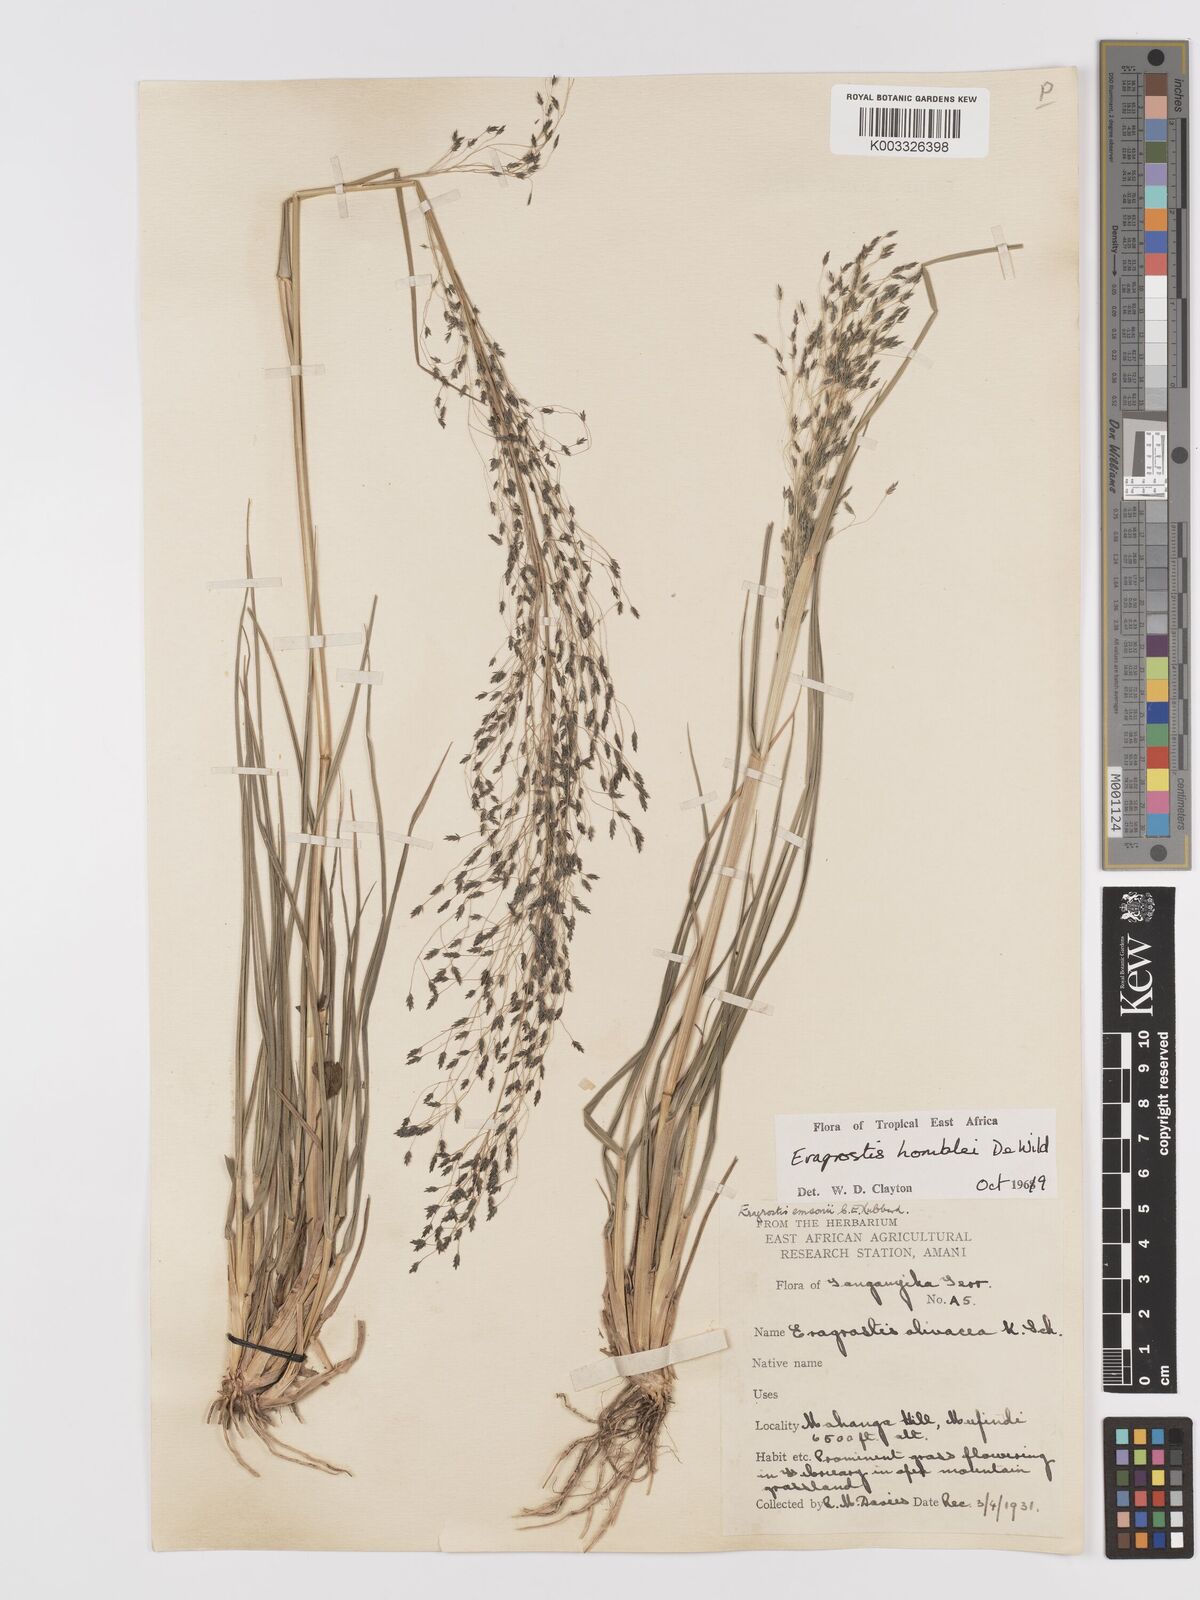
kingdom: Plantae
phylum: Tracheophyta
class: Liliopsida
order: Poales
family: Poaceae
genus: Eragrostis
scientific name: Eragrostis homblei
